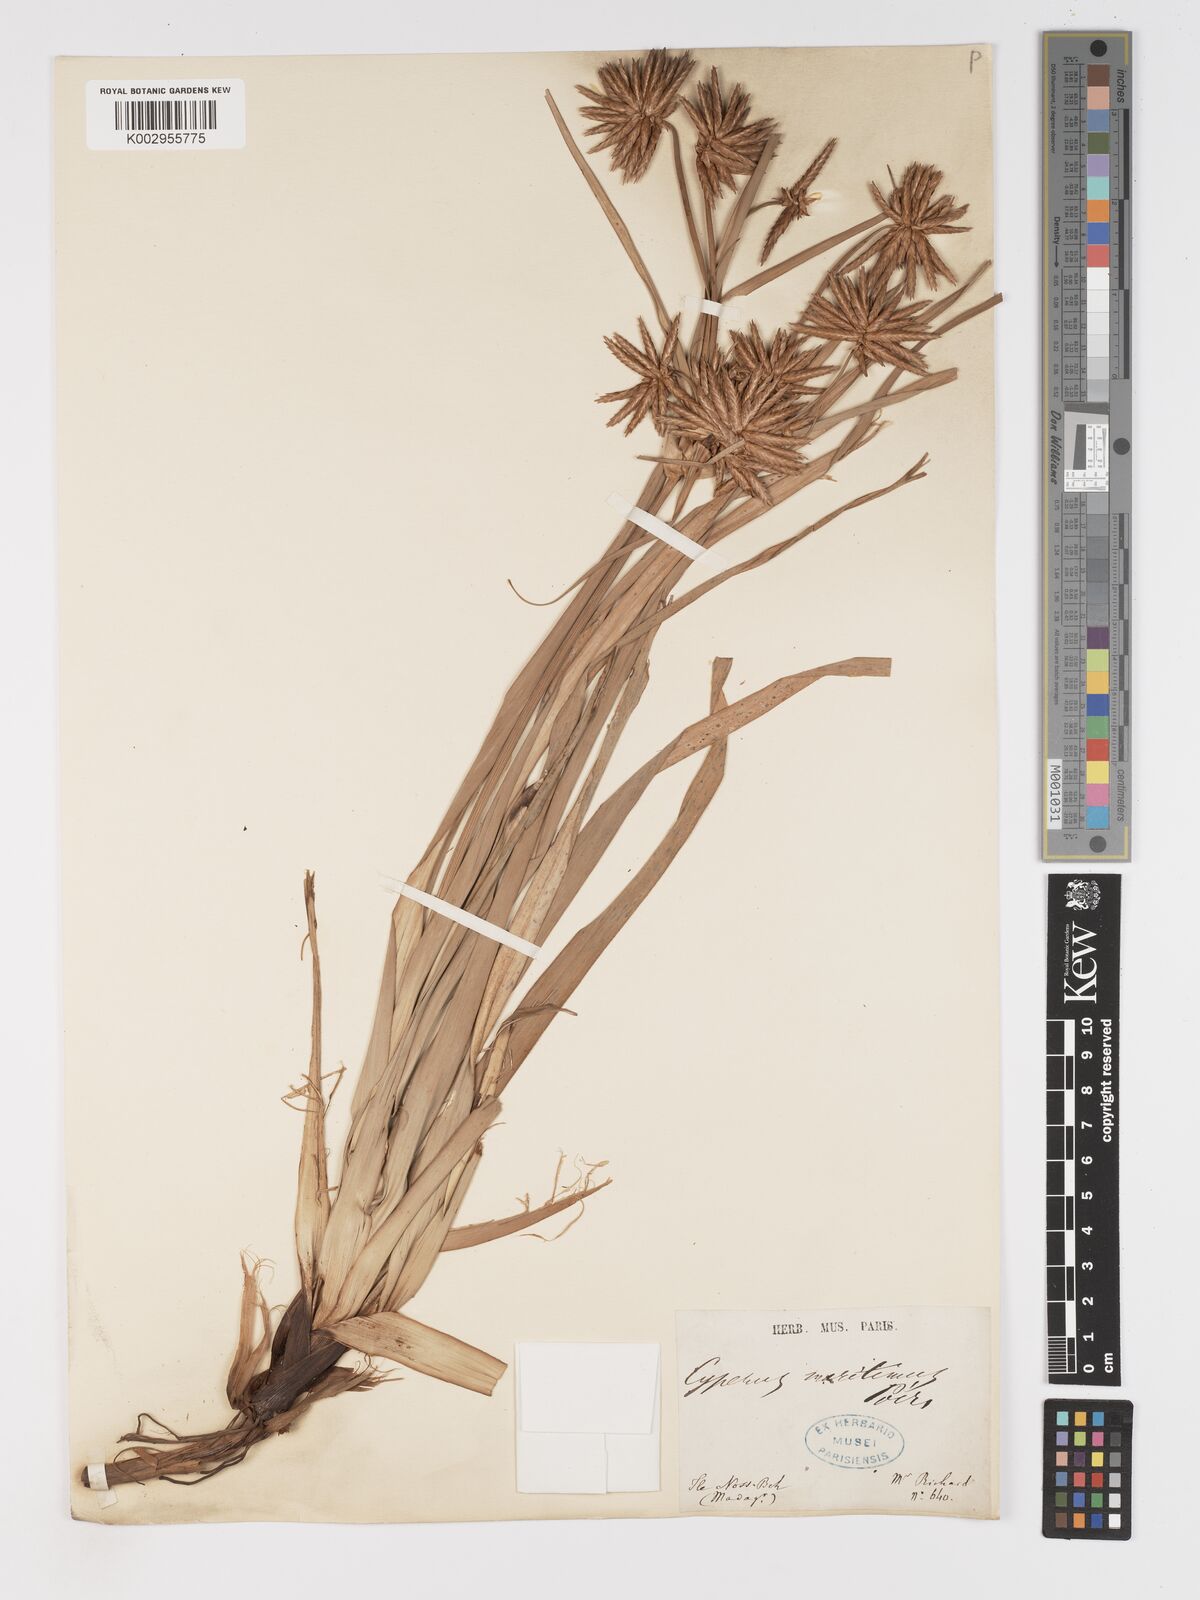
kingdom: Plantae
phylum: Tracheophyta
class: Liliopsida
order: Poales
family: Cyperaceae
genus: Cyperus
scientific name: Cyperus crassipes
